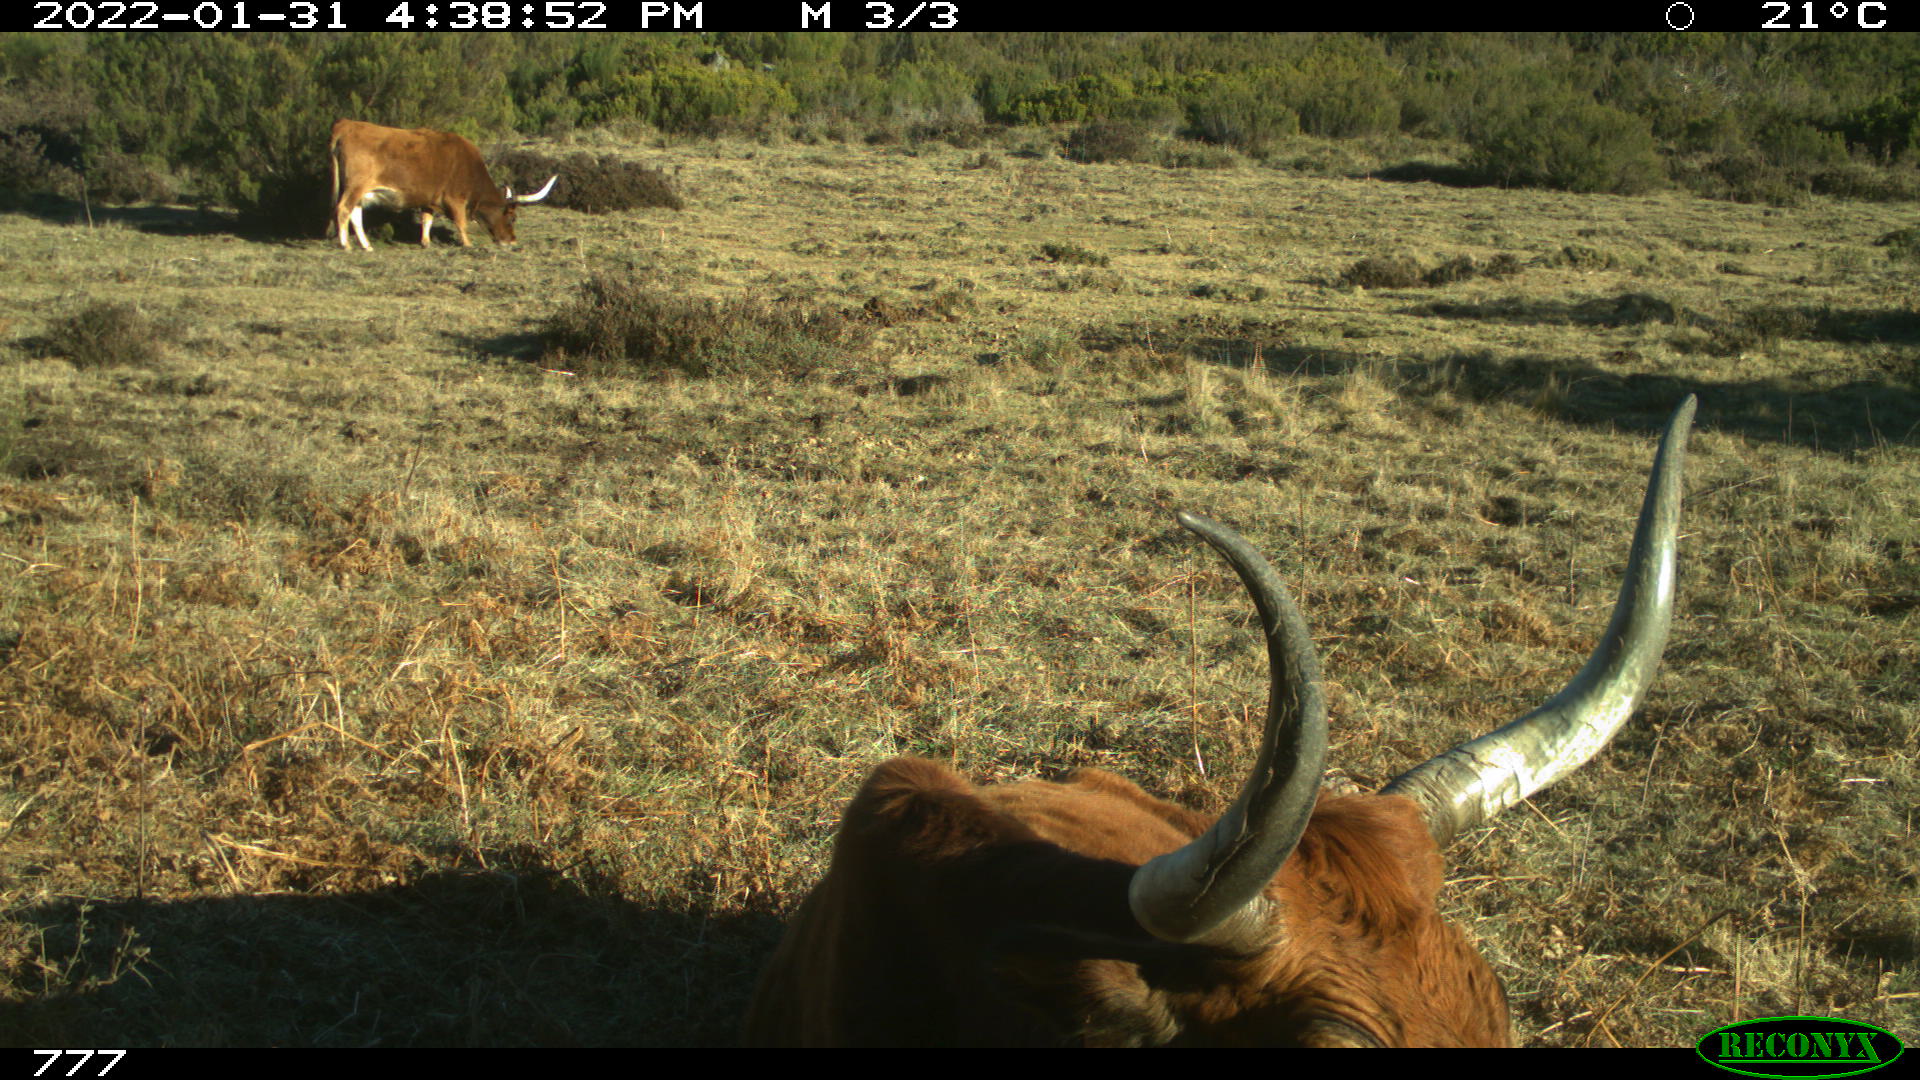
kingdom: Animalia
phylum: Chordata
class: Mammalia
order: Artiodactyla
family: Bovidae
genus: Bos
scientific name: Bos taurus
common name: Domesticated cattle
